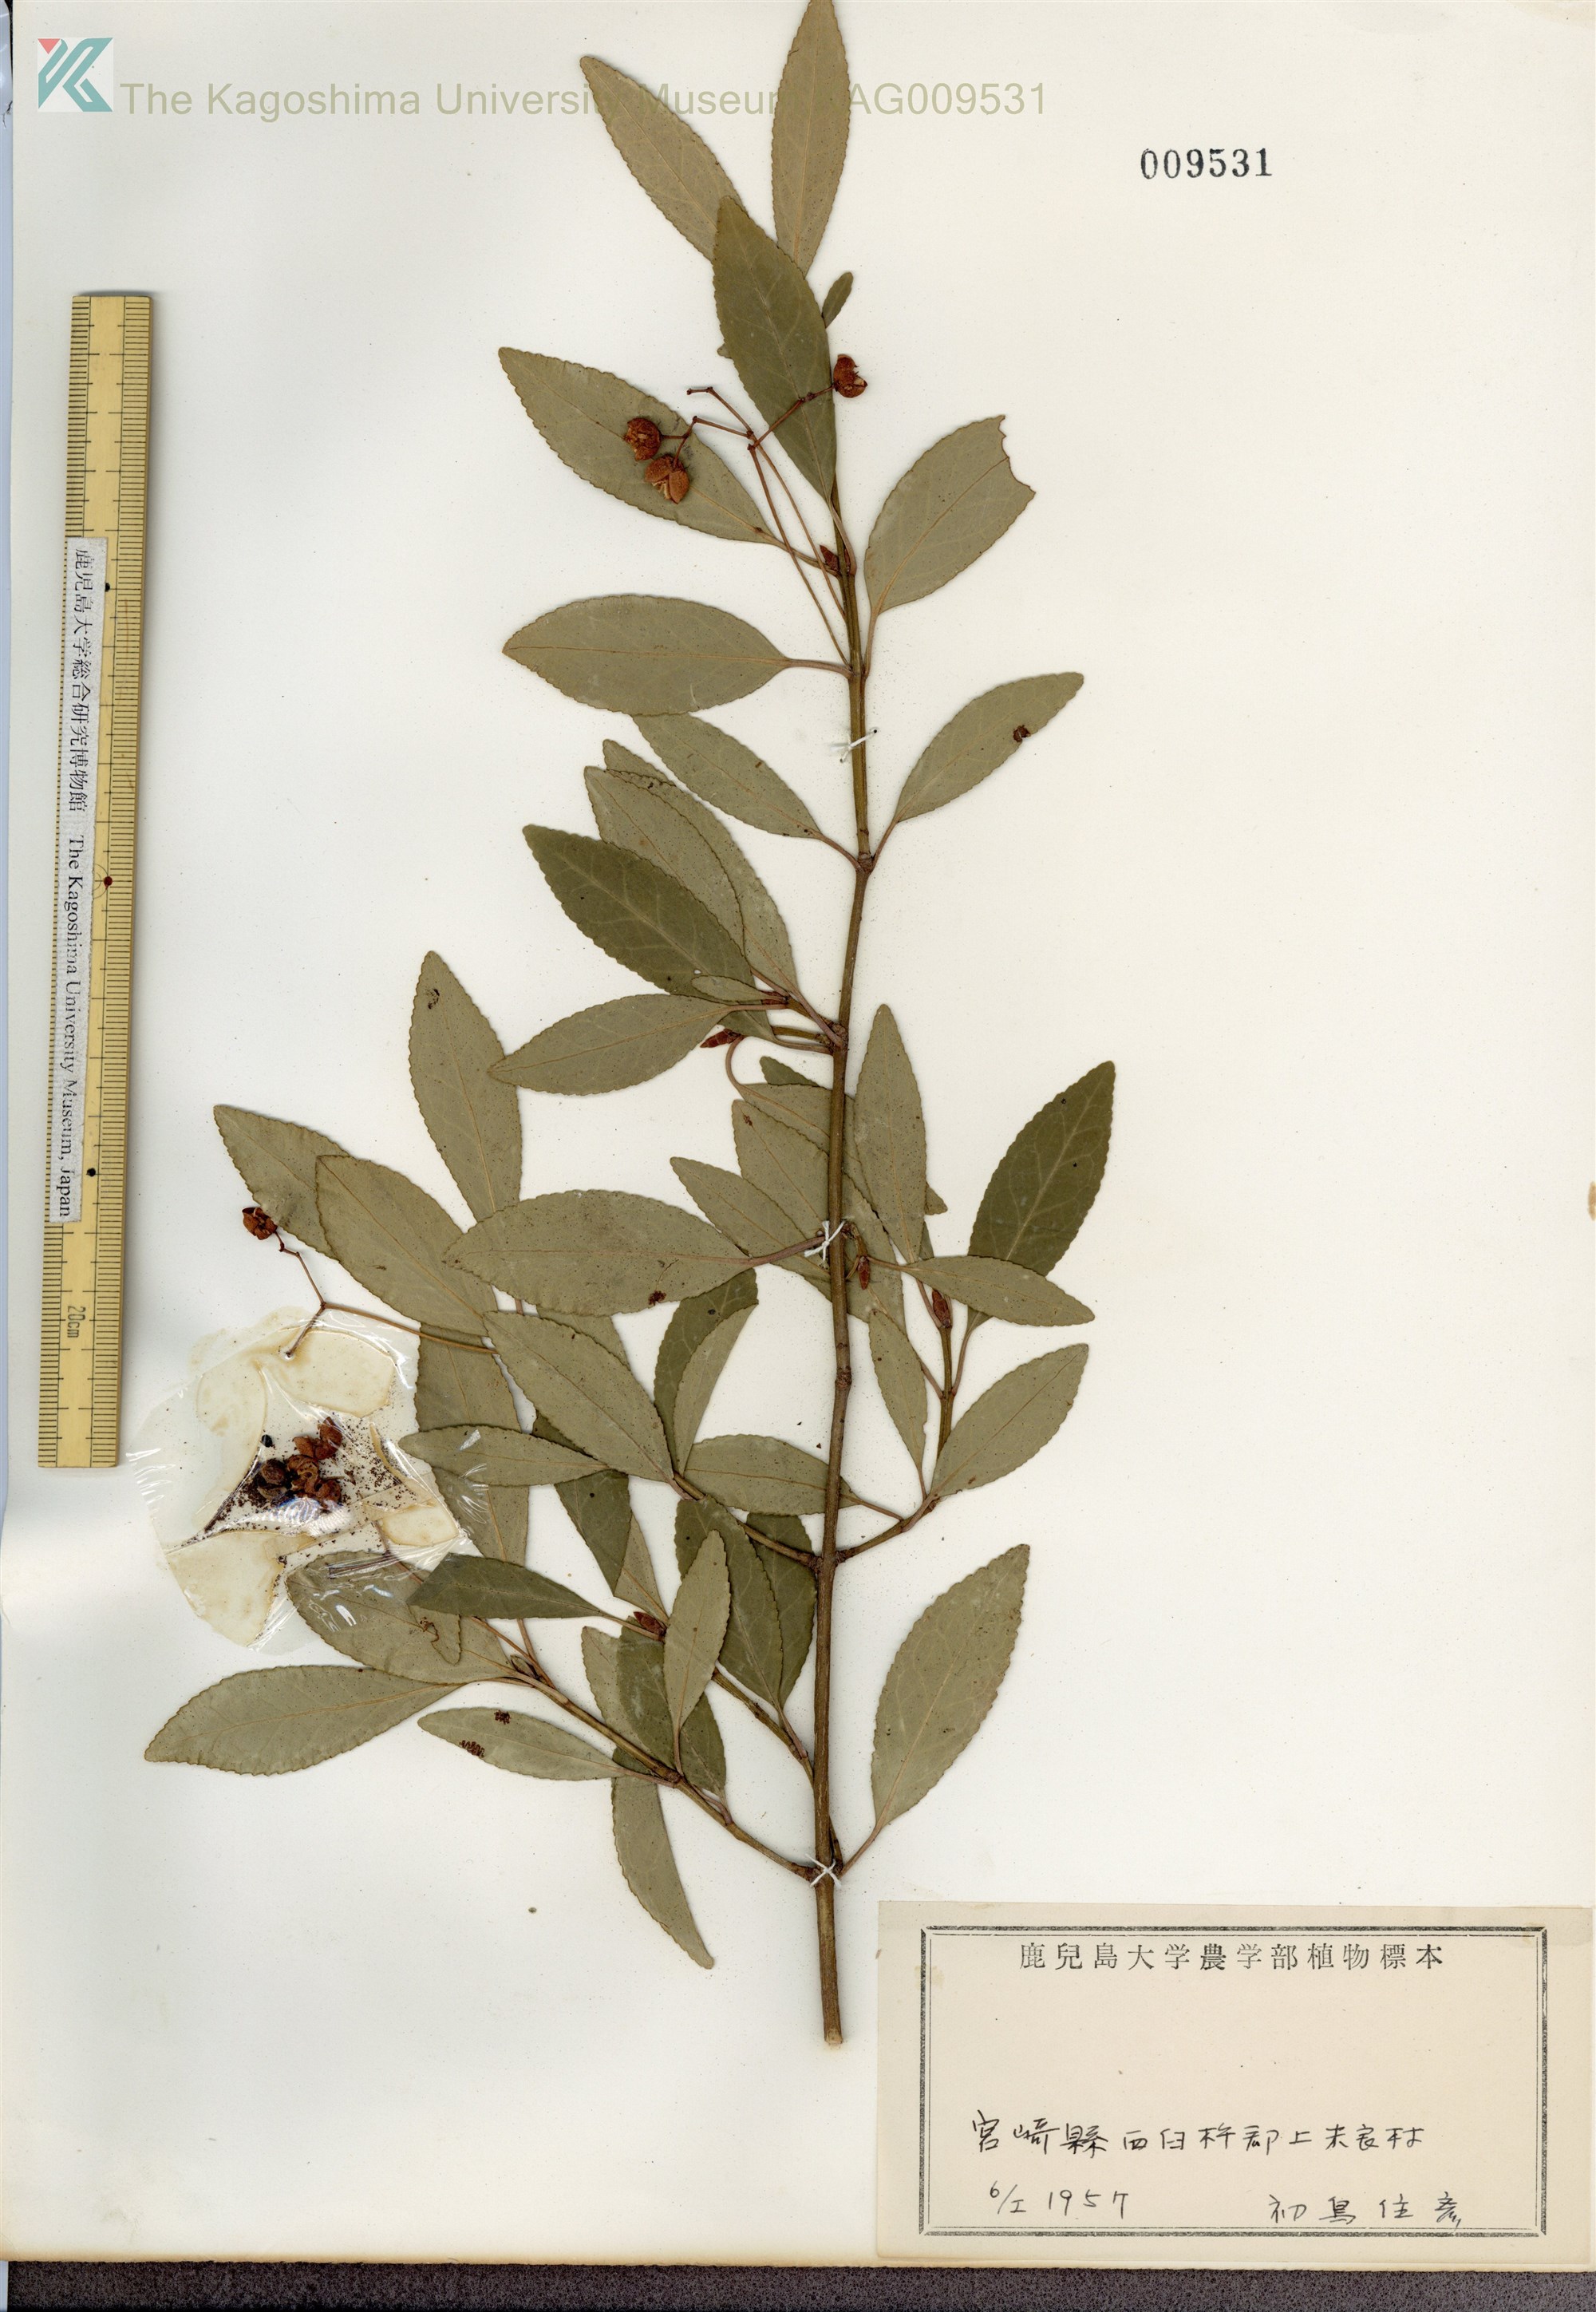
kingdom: Plantae
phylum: Tracheophyta
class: Magnoliopsida
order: Celastrales
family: Celastraceae
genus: Euonymus
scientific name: Euonymus fortunei
